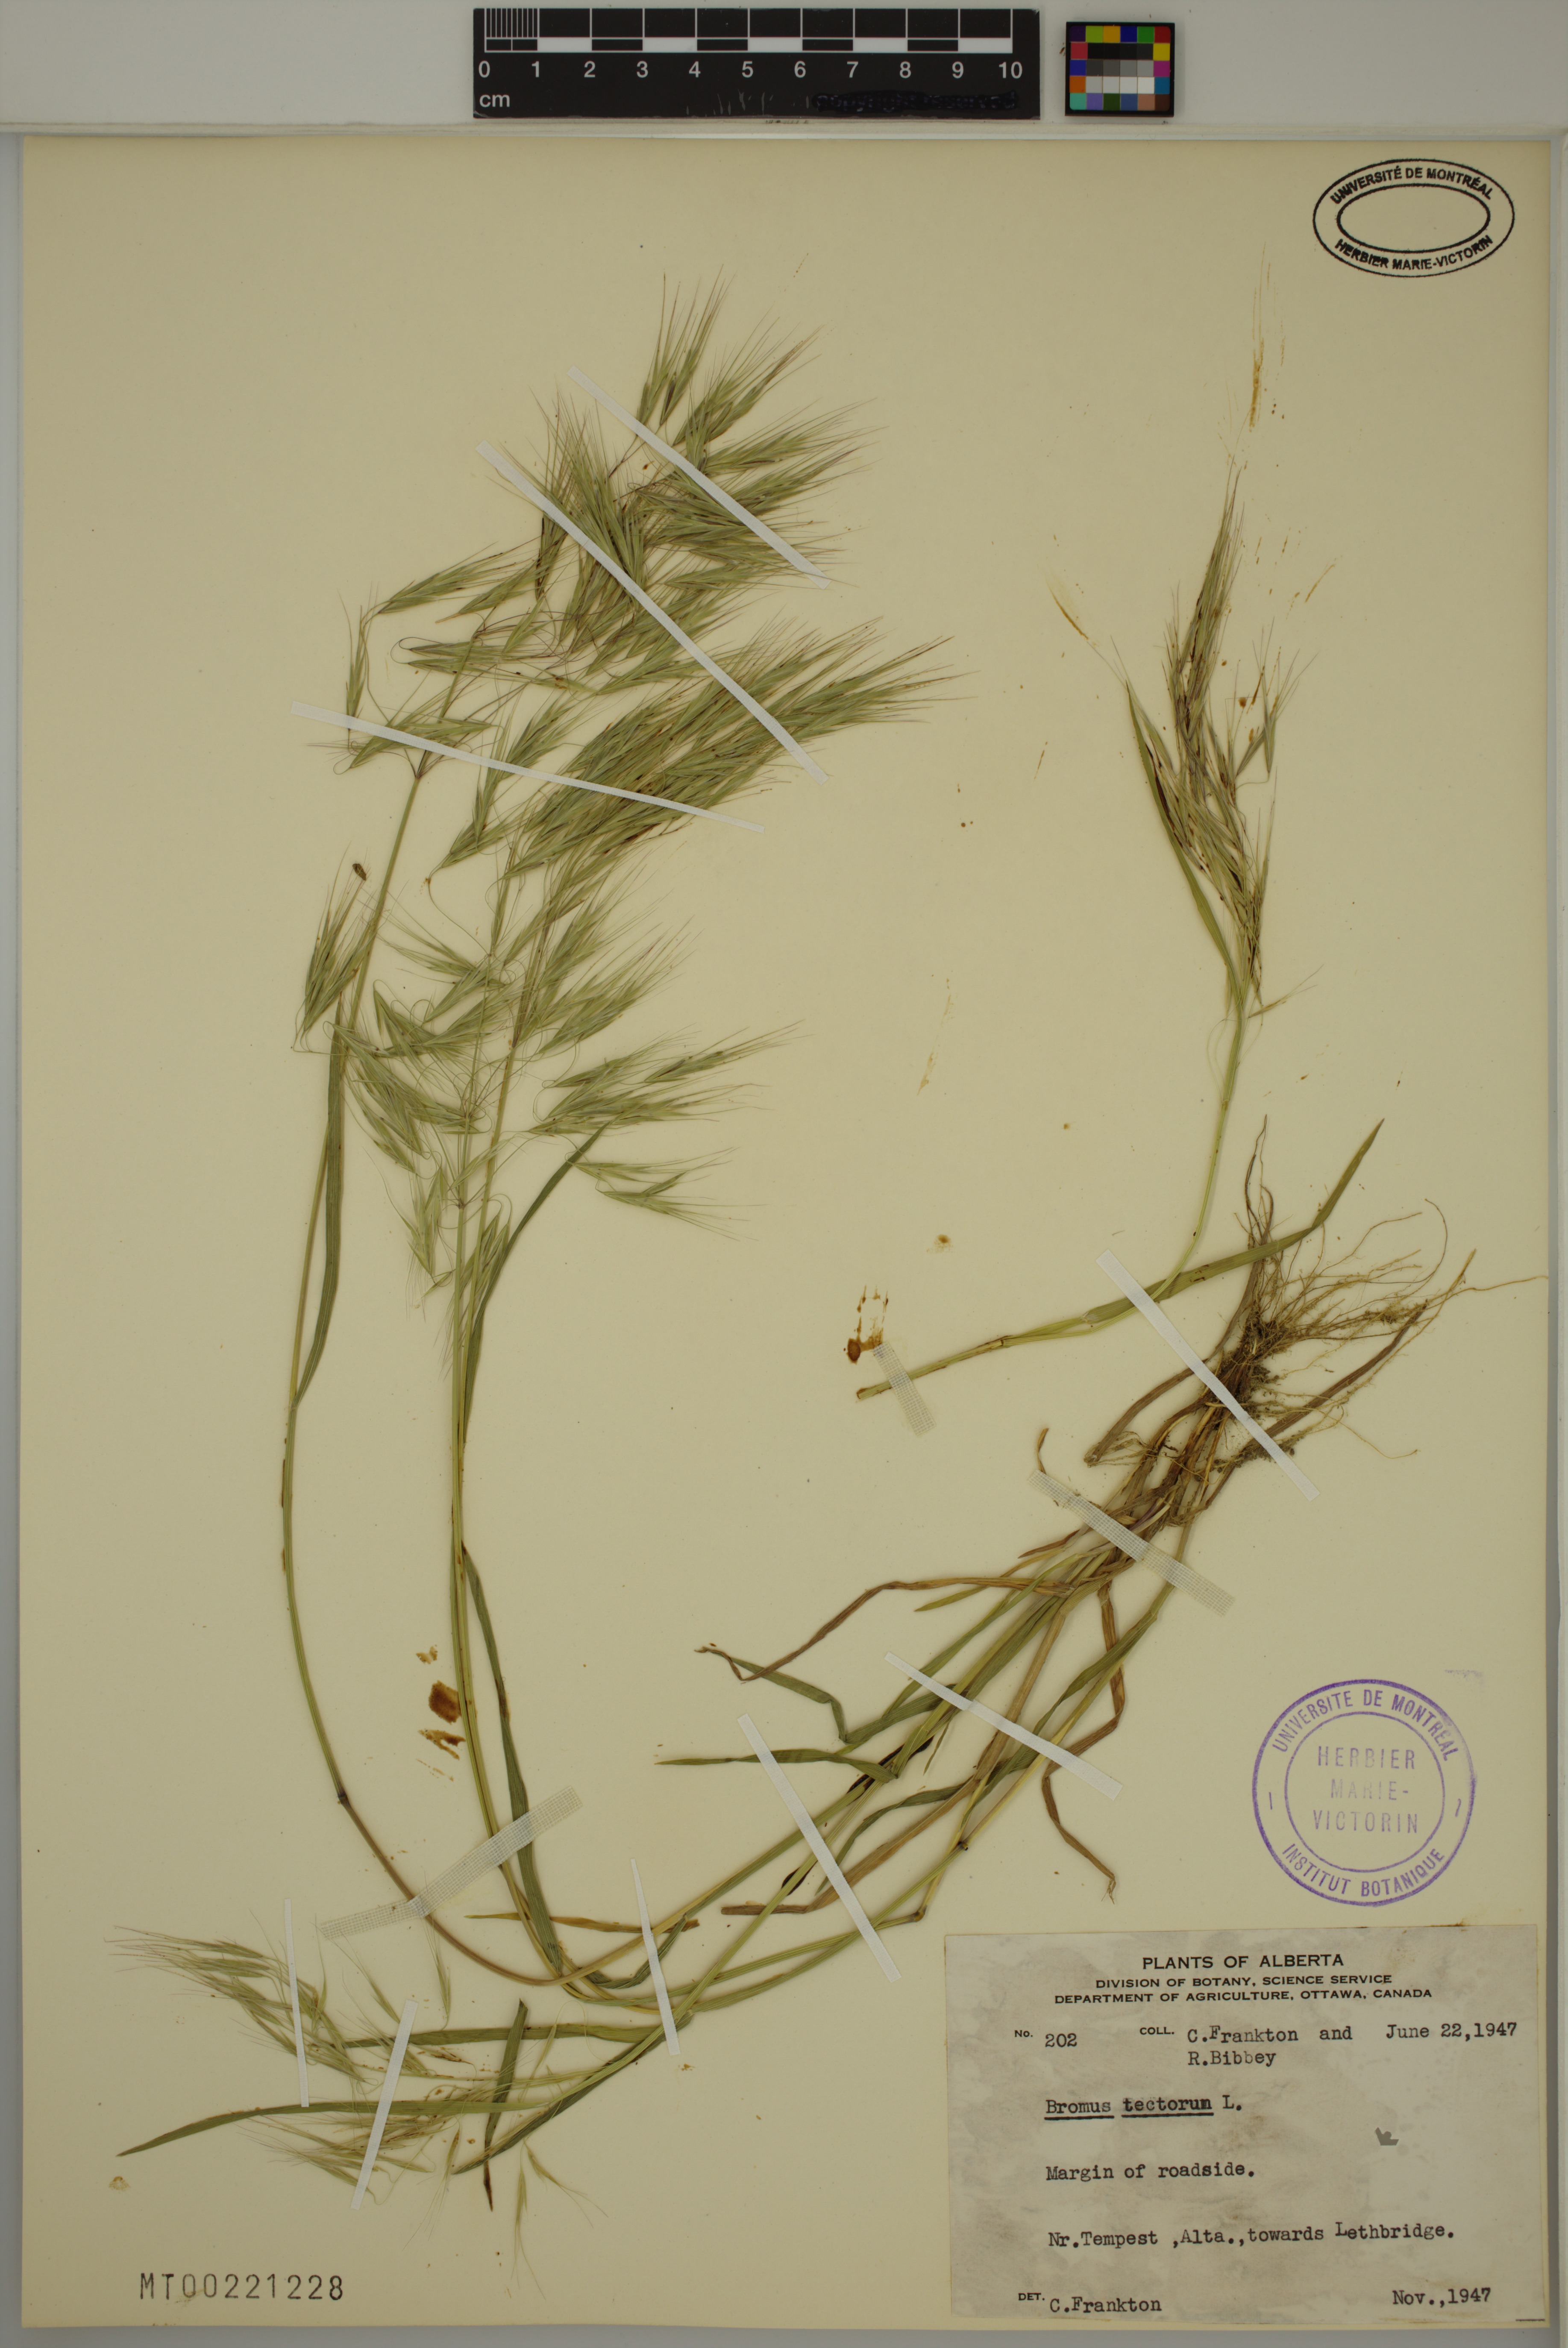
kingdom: Plantae
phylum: Tracheophyta
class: Liliopsida
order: Poales
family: Poaceae
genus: Bromus
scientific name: Bromus tectorum
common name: Cheatgrass
